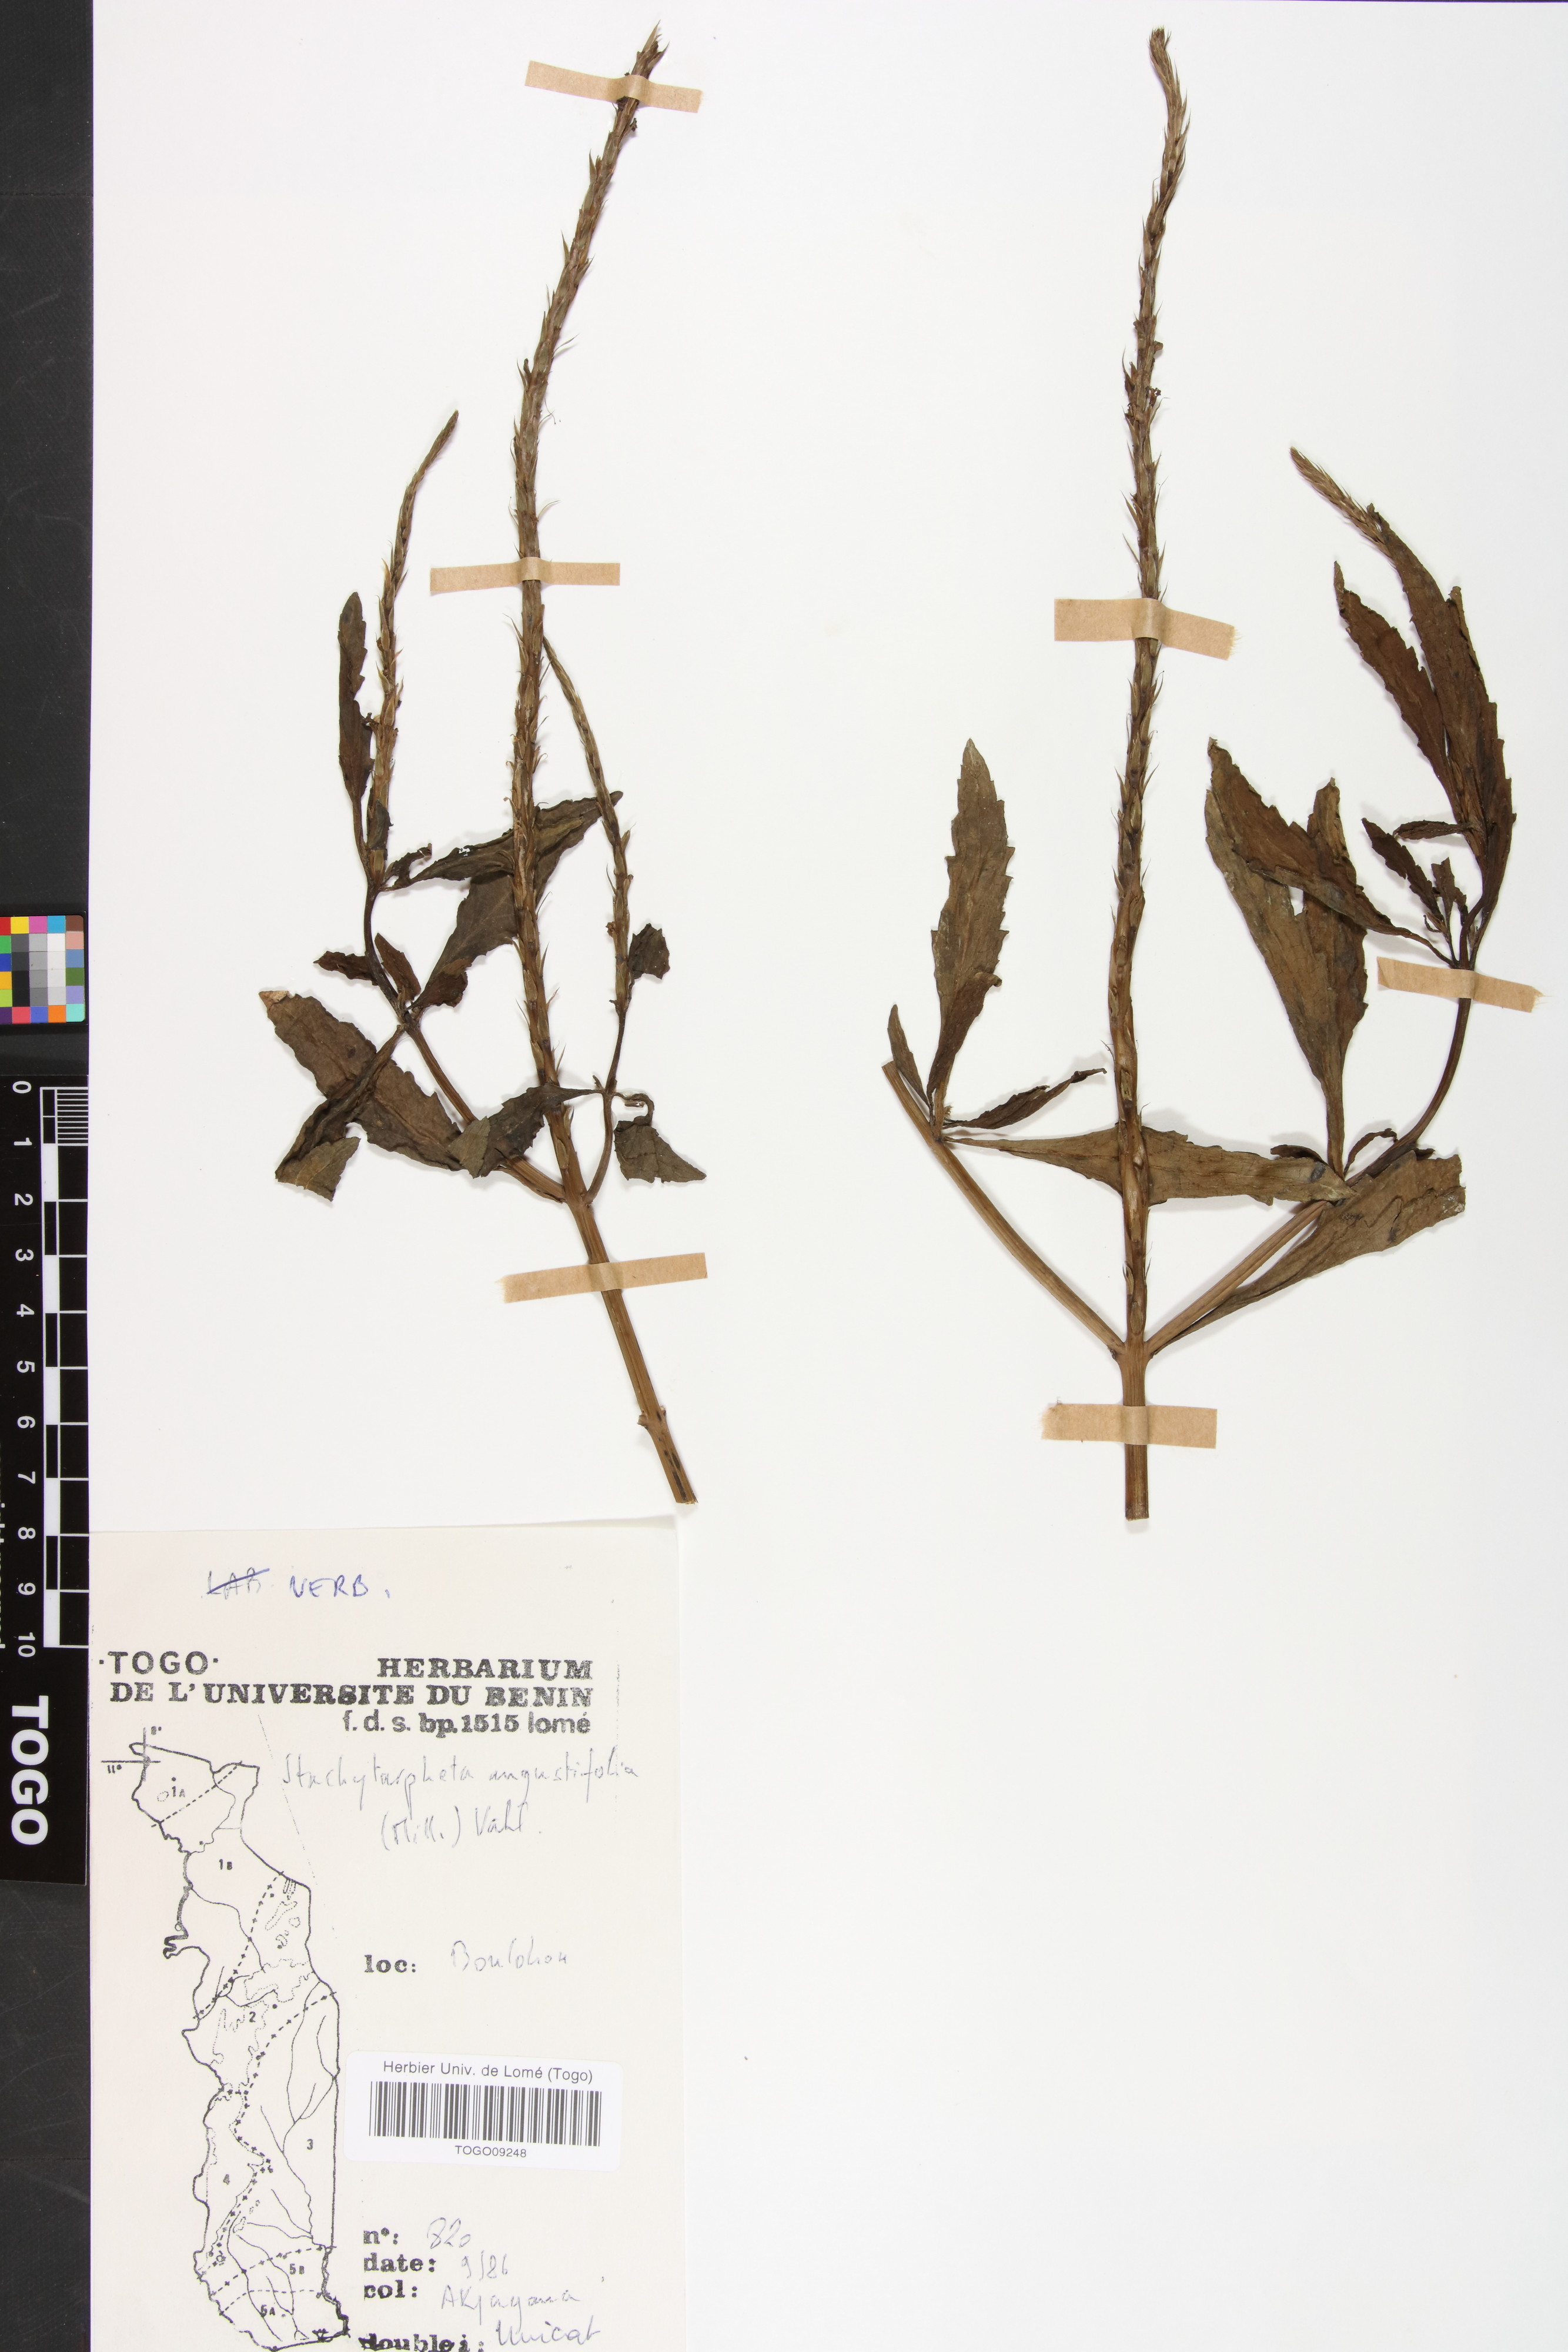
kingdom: Plantae
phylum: Tracheophyta
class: Magnoliopsida
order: Lamiales
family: Verbenaceae
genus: Stachytarpheta
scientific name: Stachytarpheta indica
